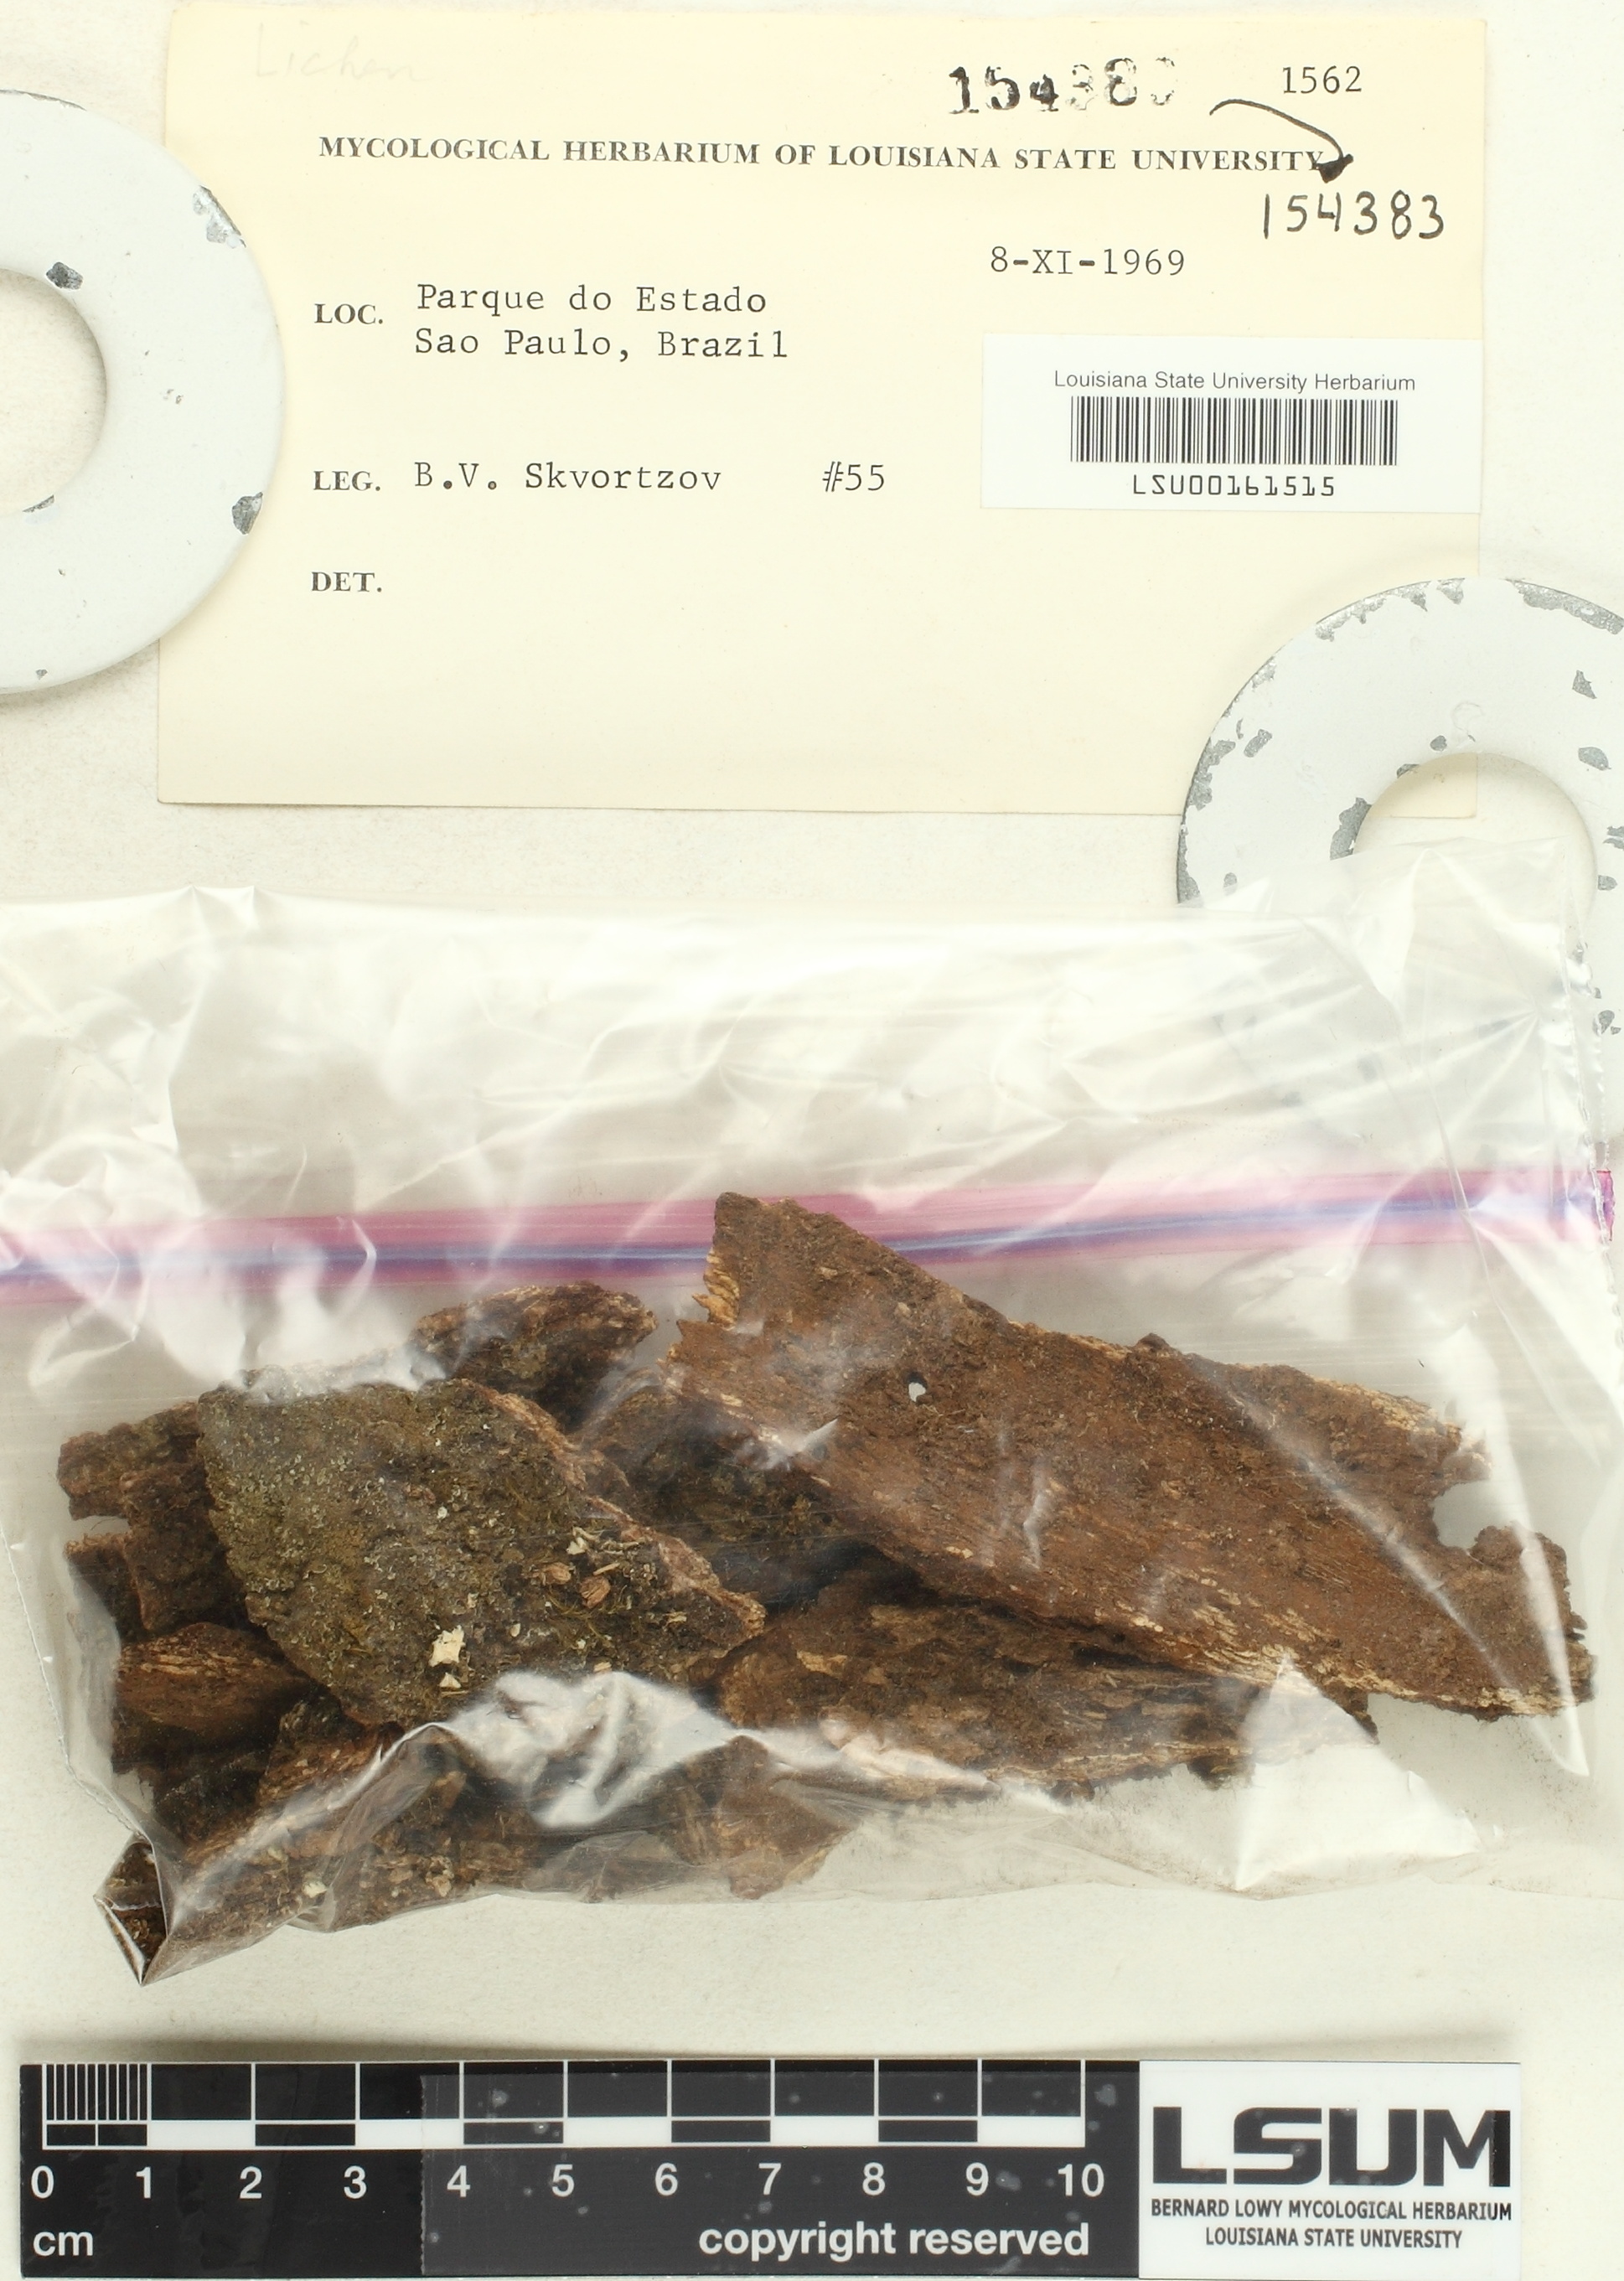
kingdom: Fungi
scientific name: Fungi
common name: Fungi
